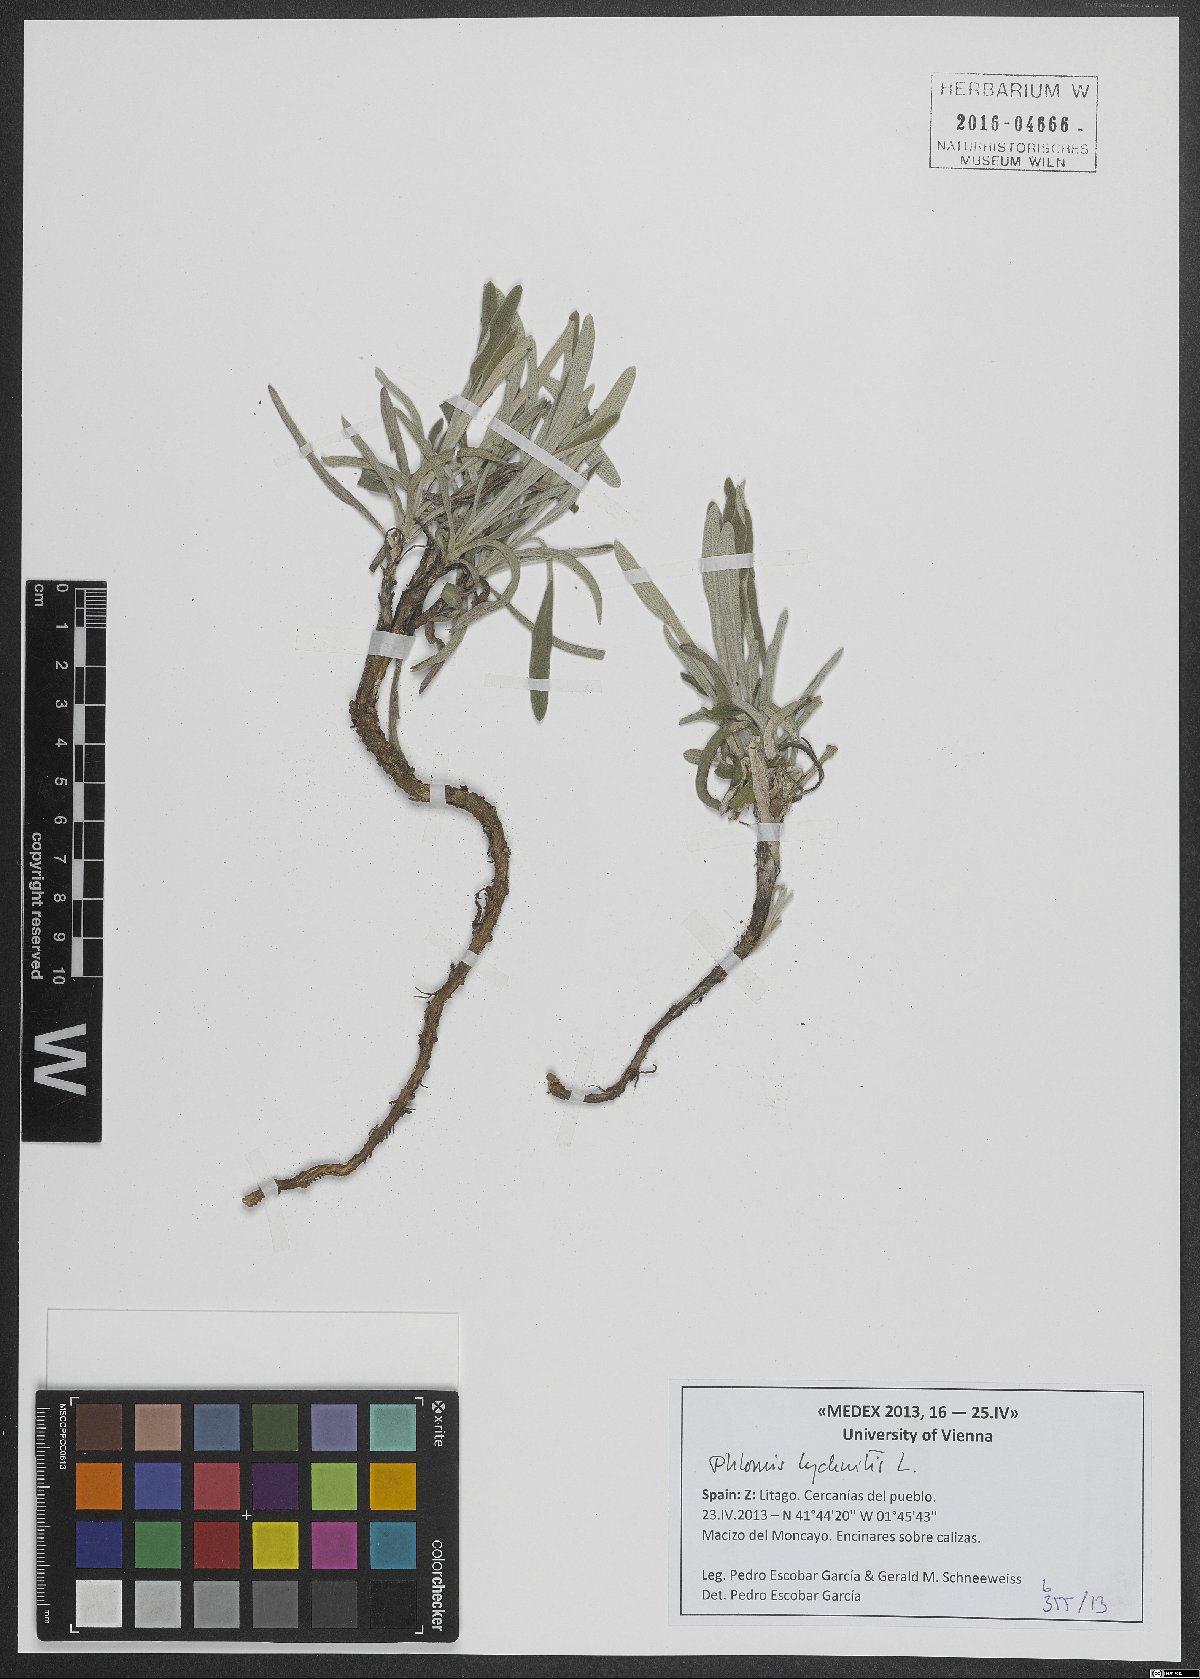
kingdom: Plantae
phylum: Tracheophyta
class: Magnoliopsida
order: Lamiales
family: Lamiaceae
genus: Phlomis
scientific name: Phlomis lychnitis
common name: Lampwickplant
